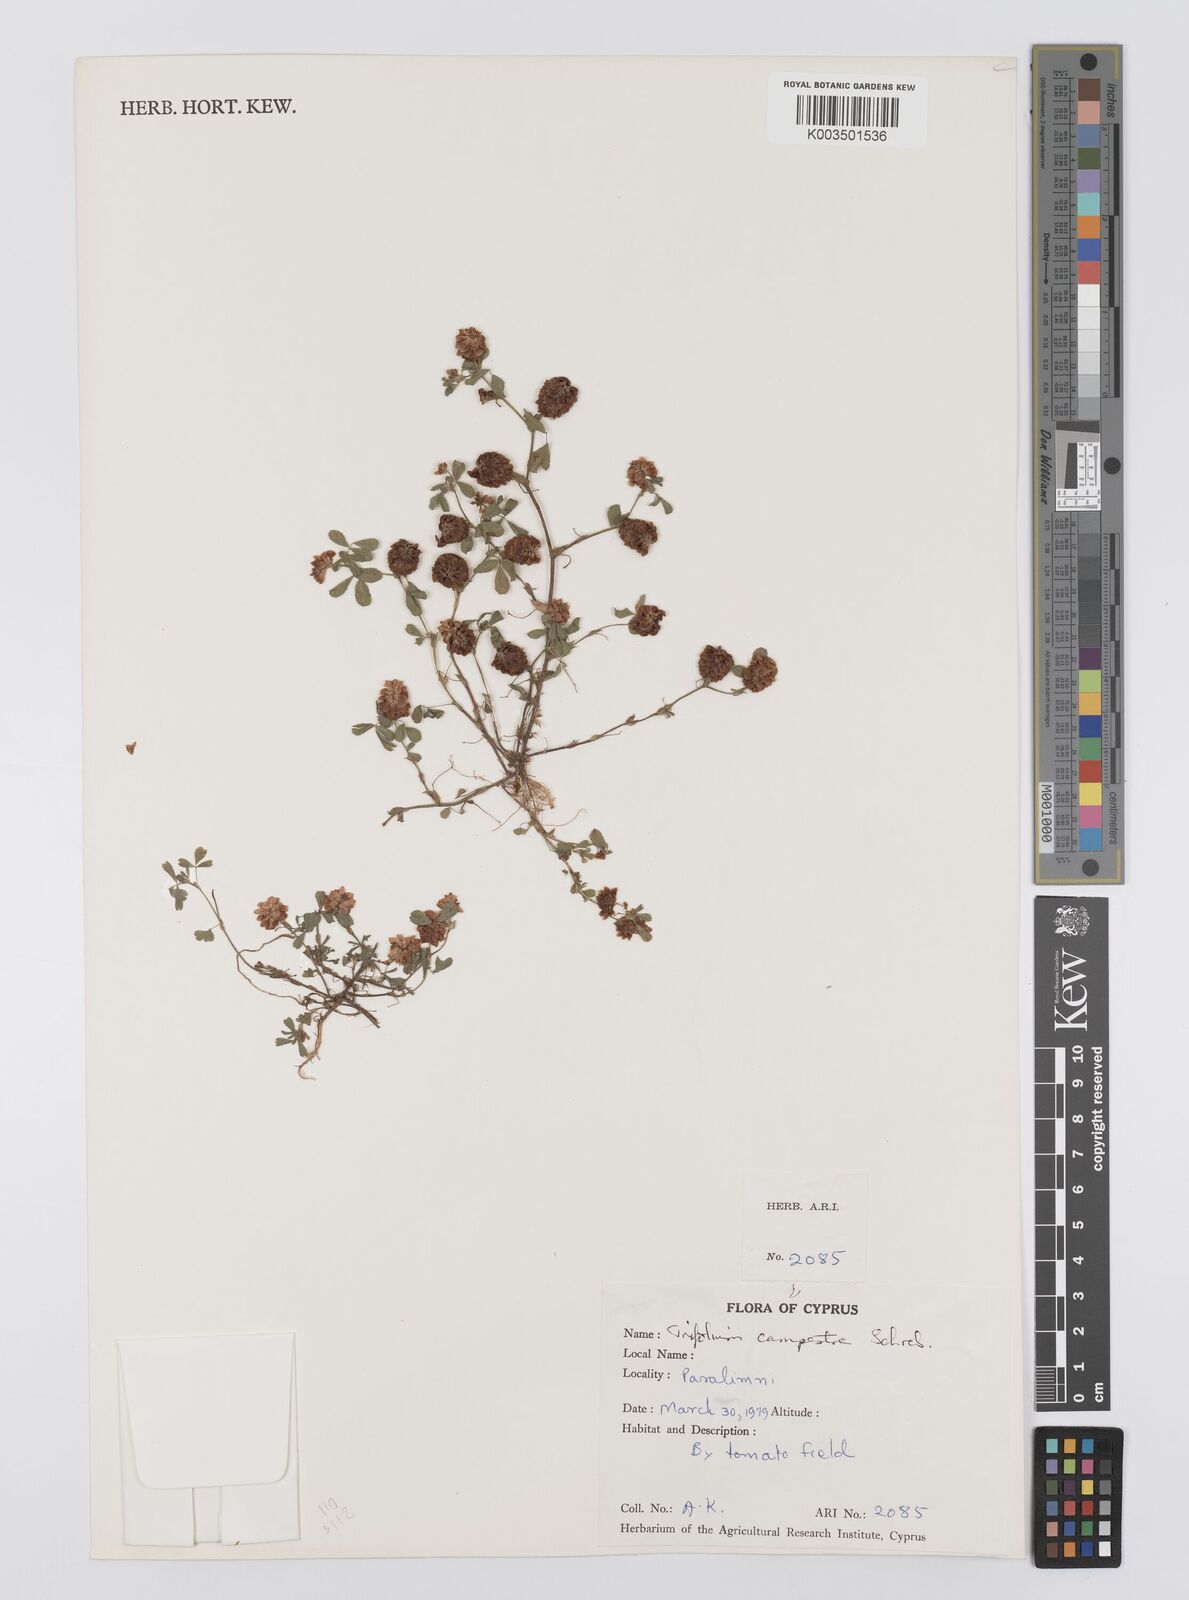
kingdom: Plantae
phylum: Tracheophyta
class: Magnoliopsida
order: Fabales
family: Fabaceae
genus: Trifolium
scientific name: Trifolium campestre
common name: Field clover
